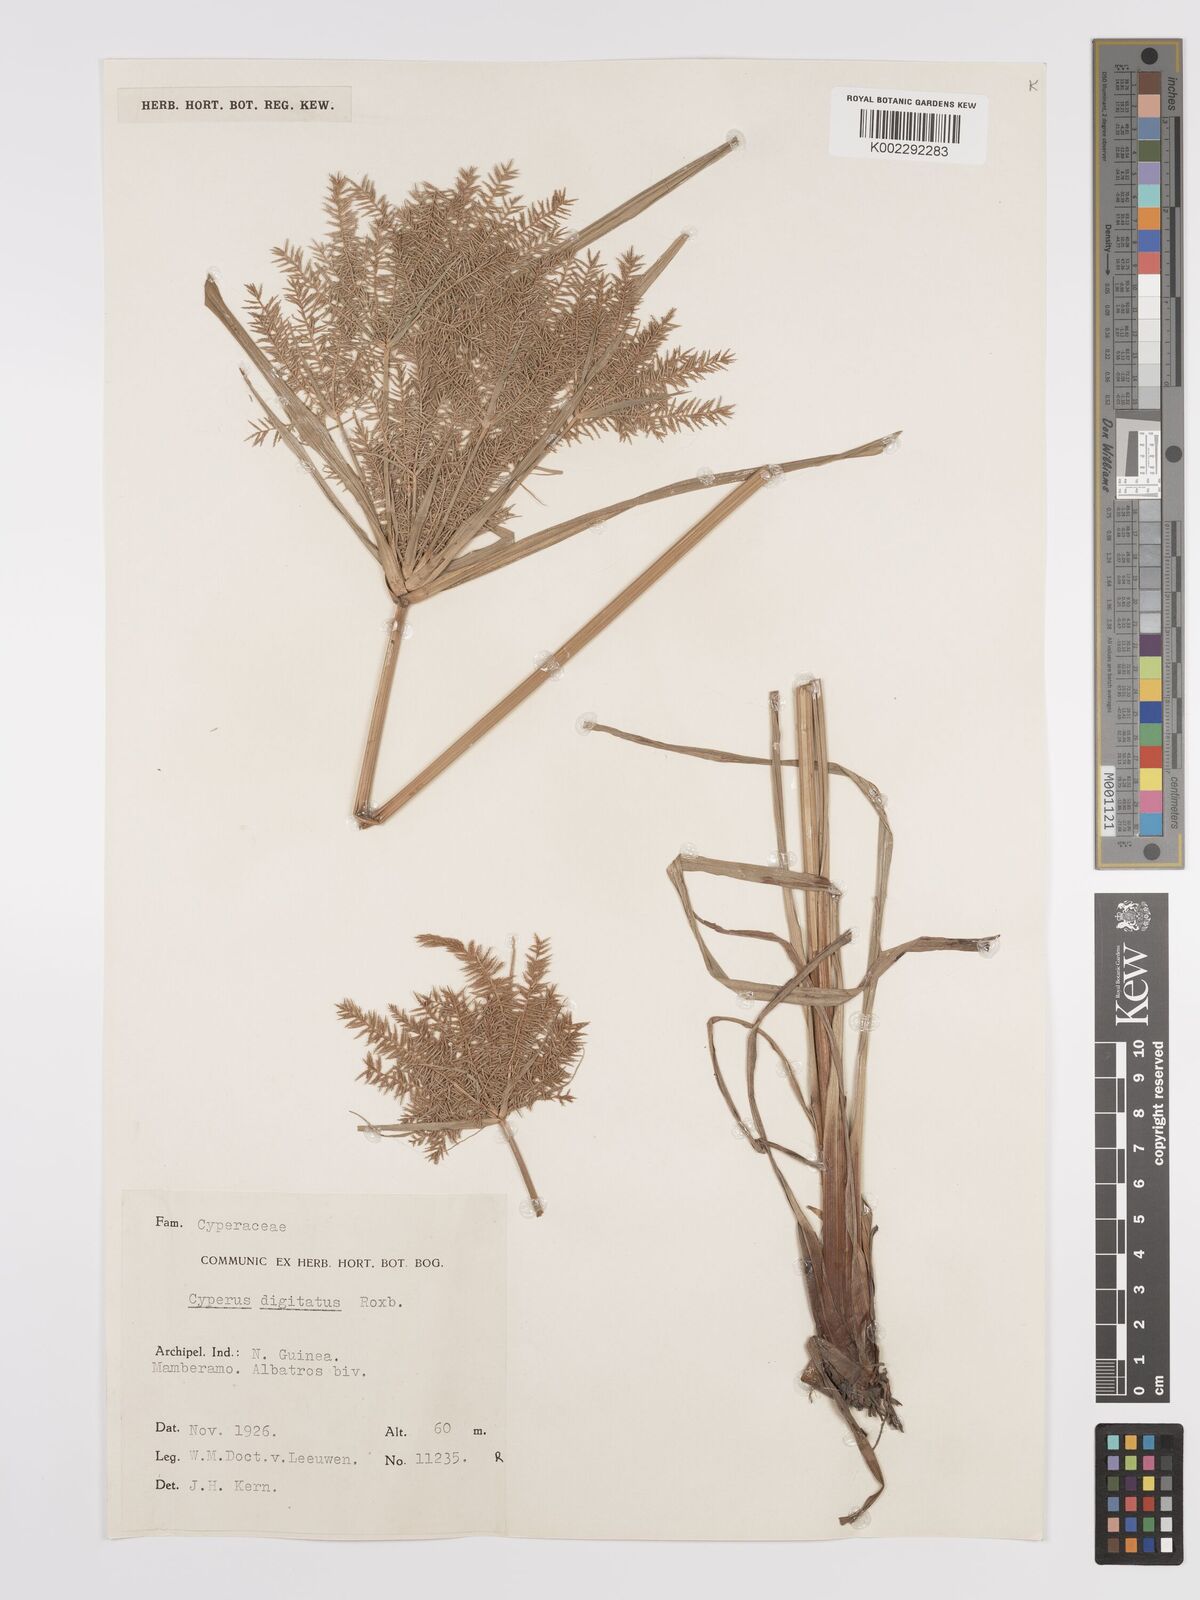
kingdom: Plantae
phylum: Tracheophyta
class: Liliopsida
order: Poales
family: Cyperaceae
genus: Cyperus
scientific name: Cyperus digitatus
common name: Finger flatsedge
